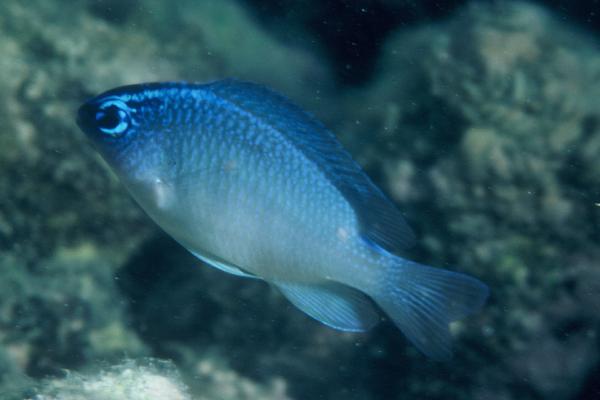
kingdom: Animalia
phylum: Chordata
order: Perciformes
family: Pomacentridae
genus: Chrysiptera
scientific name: Chrysiptera glauca
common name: Grey demoiselle
